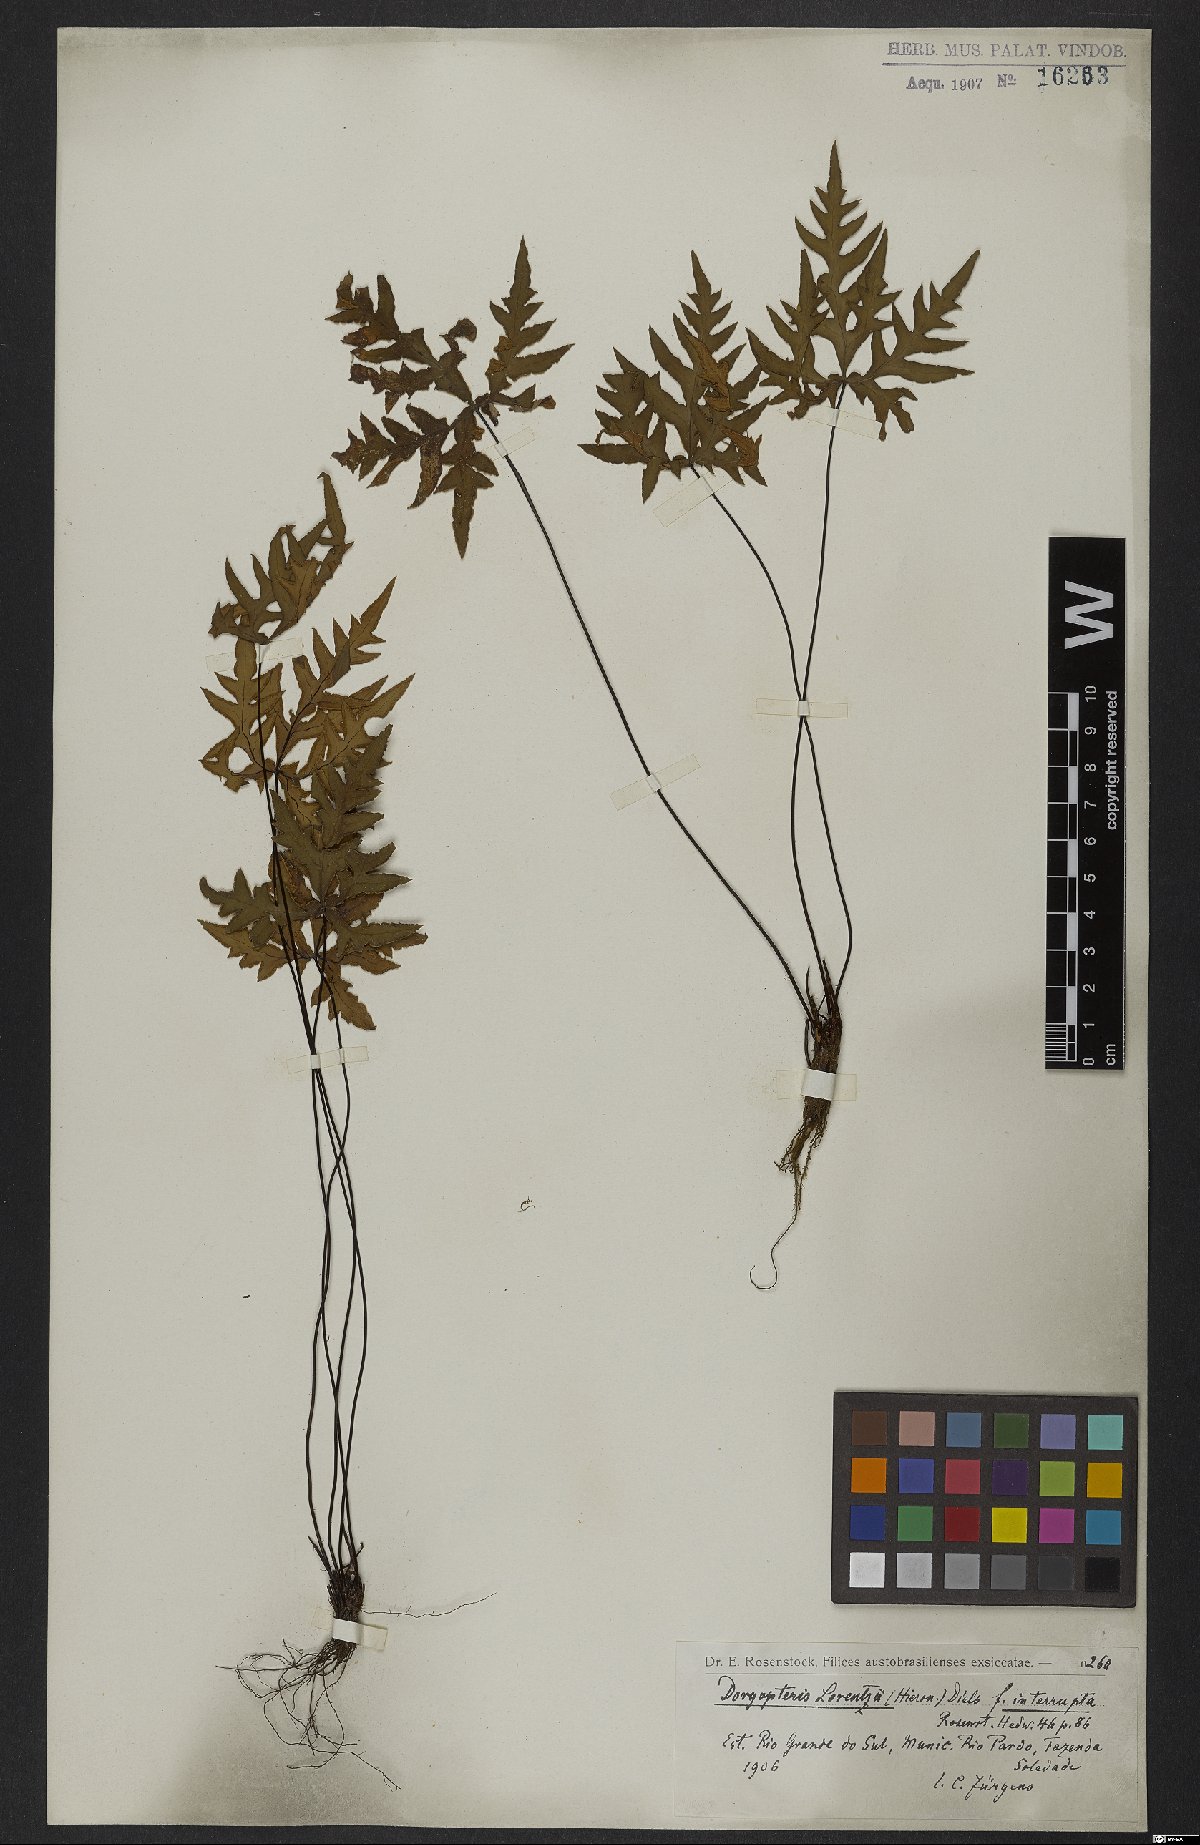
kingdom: Plantae
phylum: Tracheophyta
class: Polypodiopsida
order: Polypodiales
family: Pteridaceae
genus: Doryopteris
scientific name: Doryopteris lorentzii
